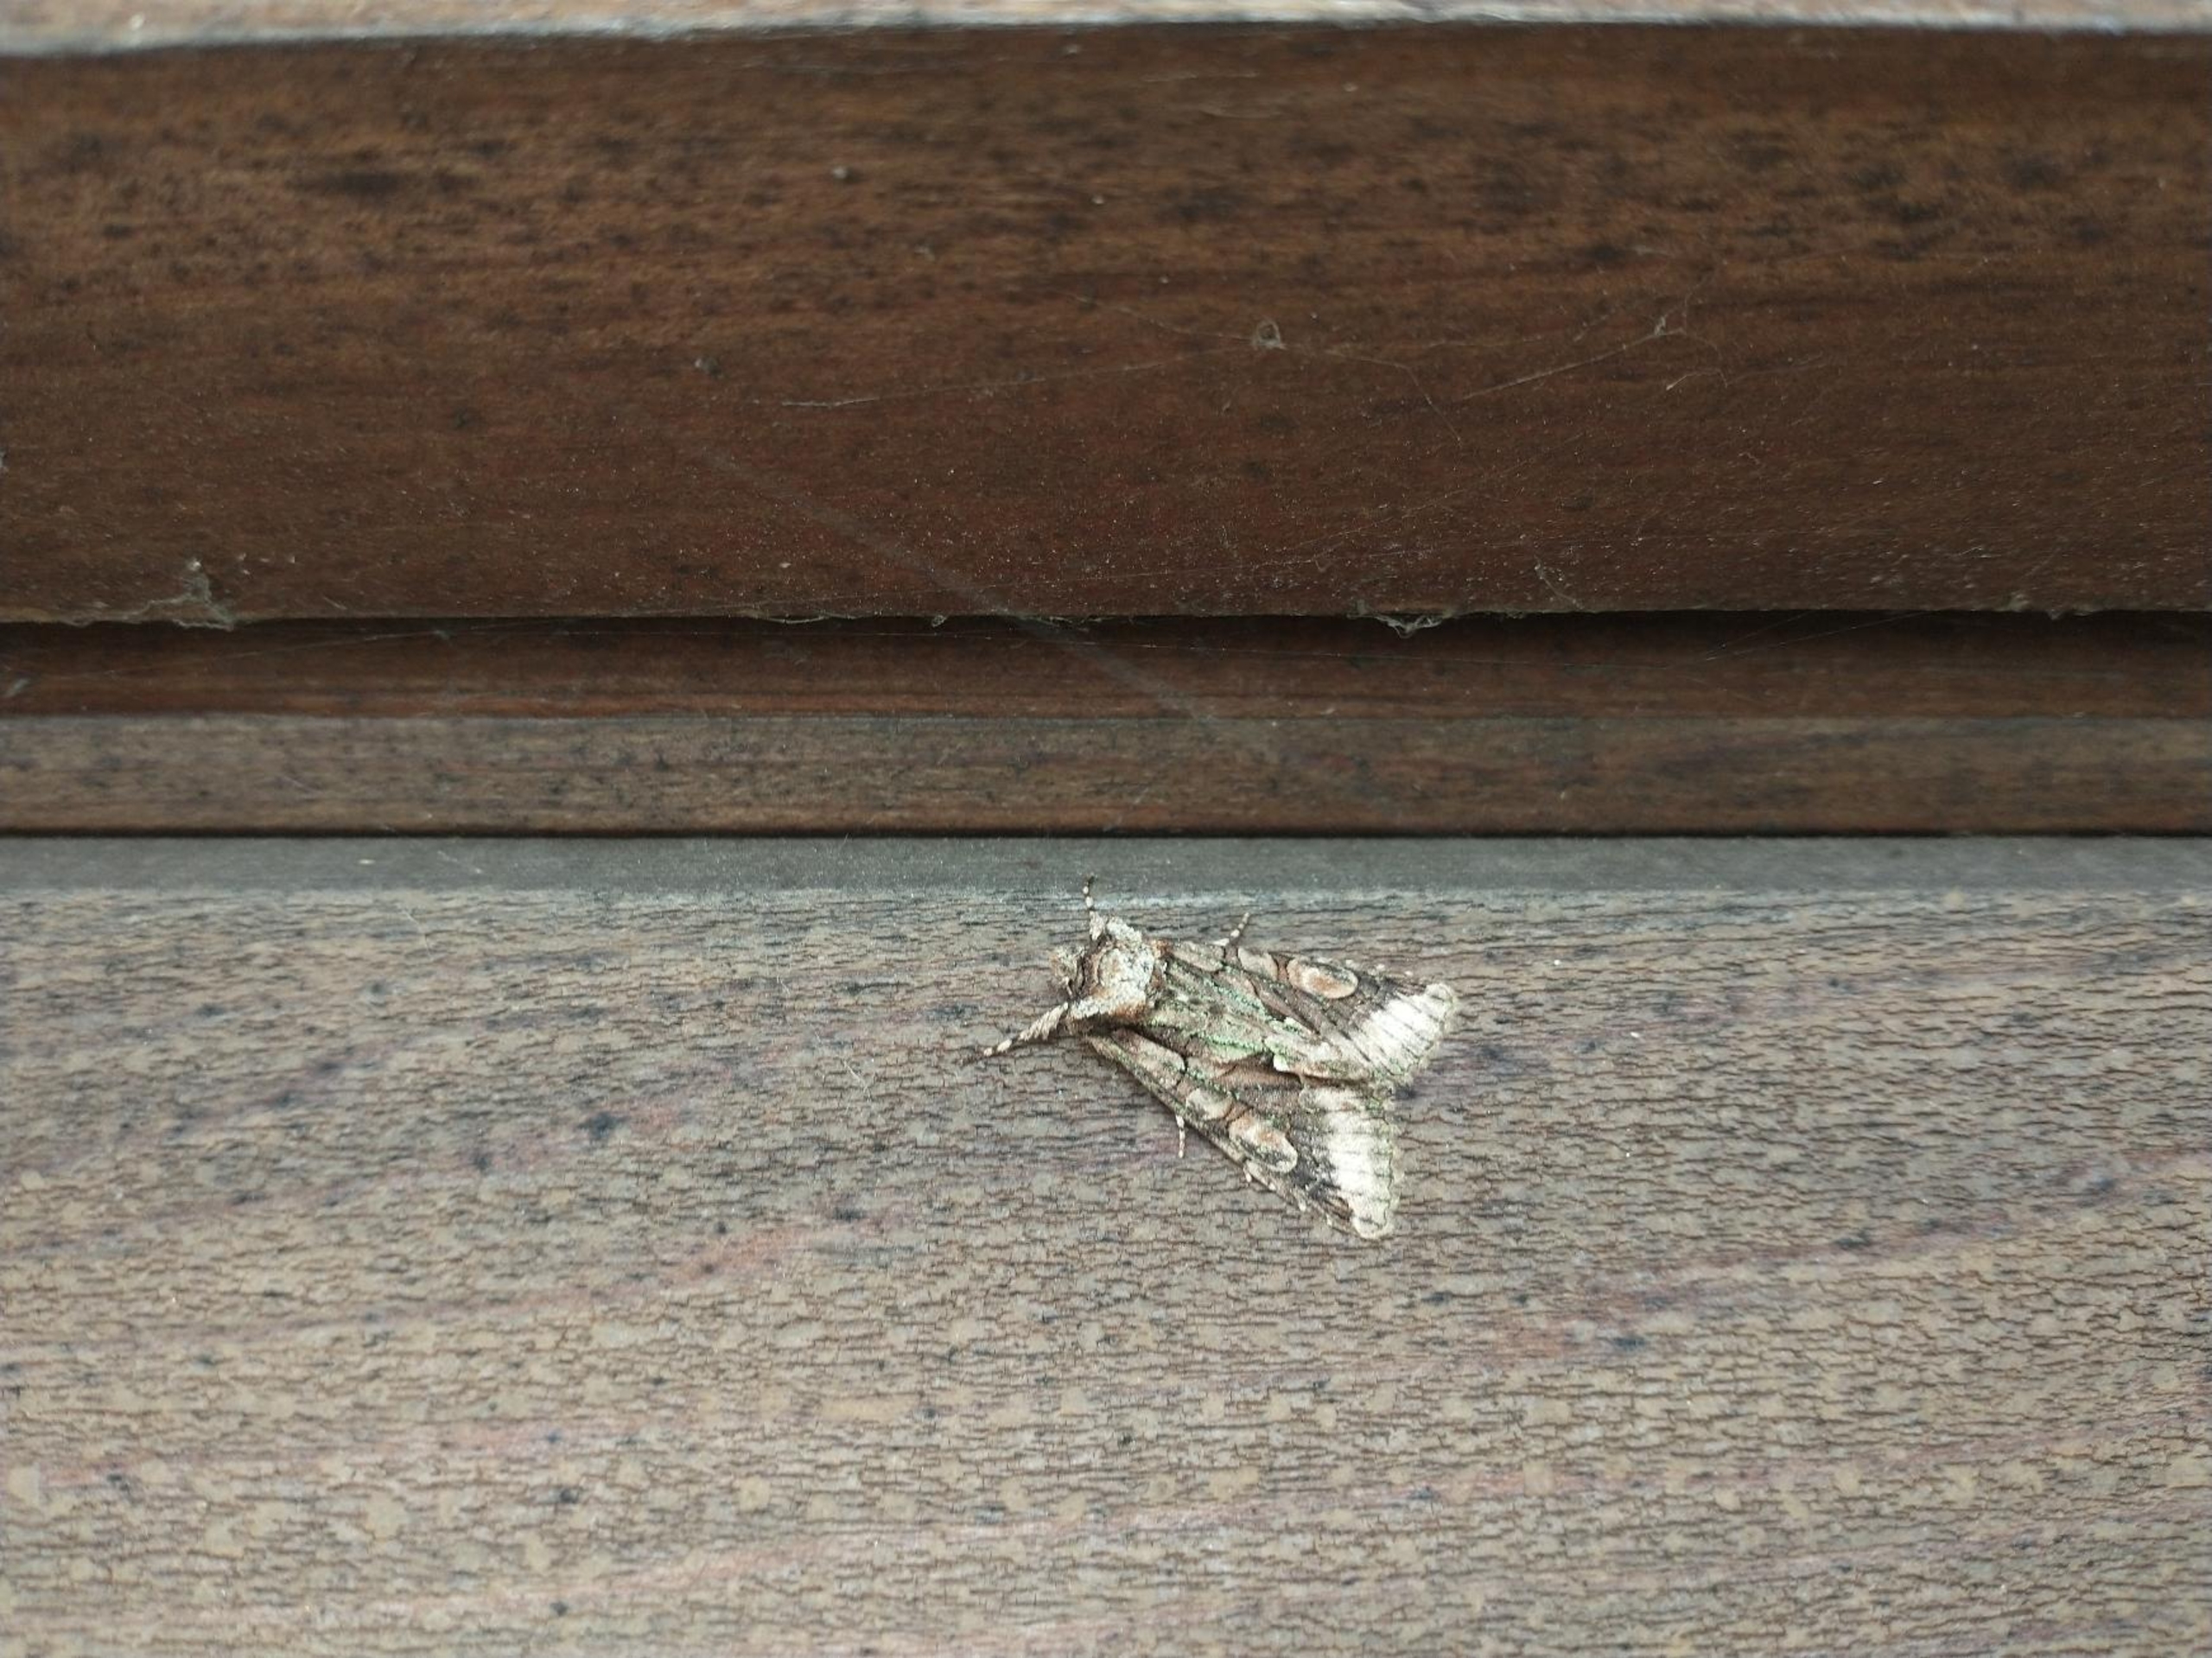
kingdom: Animalia
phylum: Arthropoda
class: Insecta
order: Lepidoptera
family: Noctuidae
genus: Allophyes
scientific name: Allophyes oxyacanthae
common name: Tjørneugle
